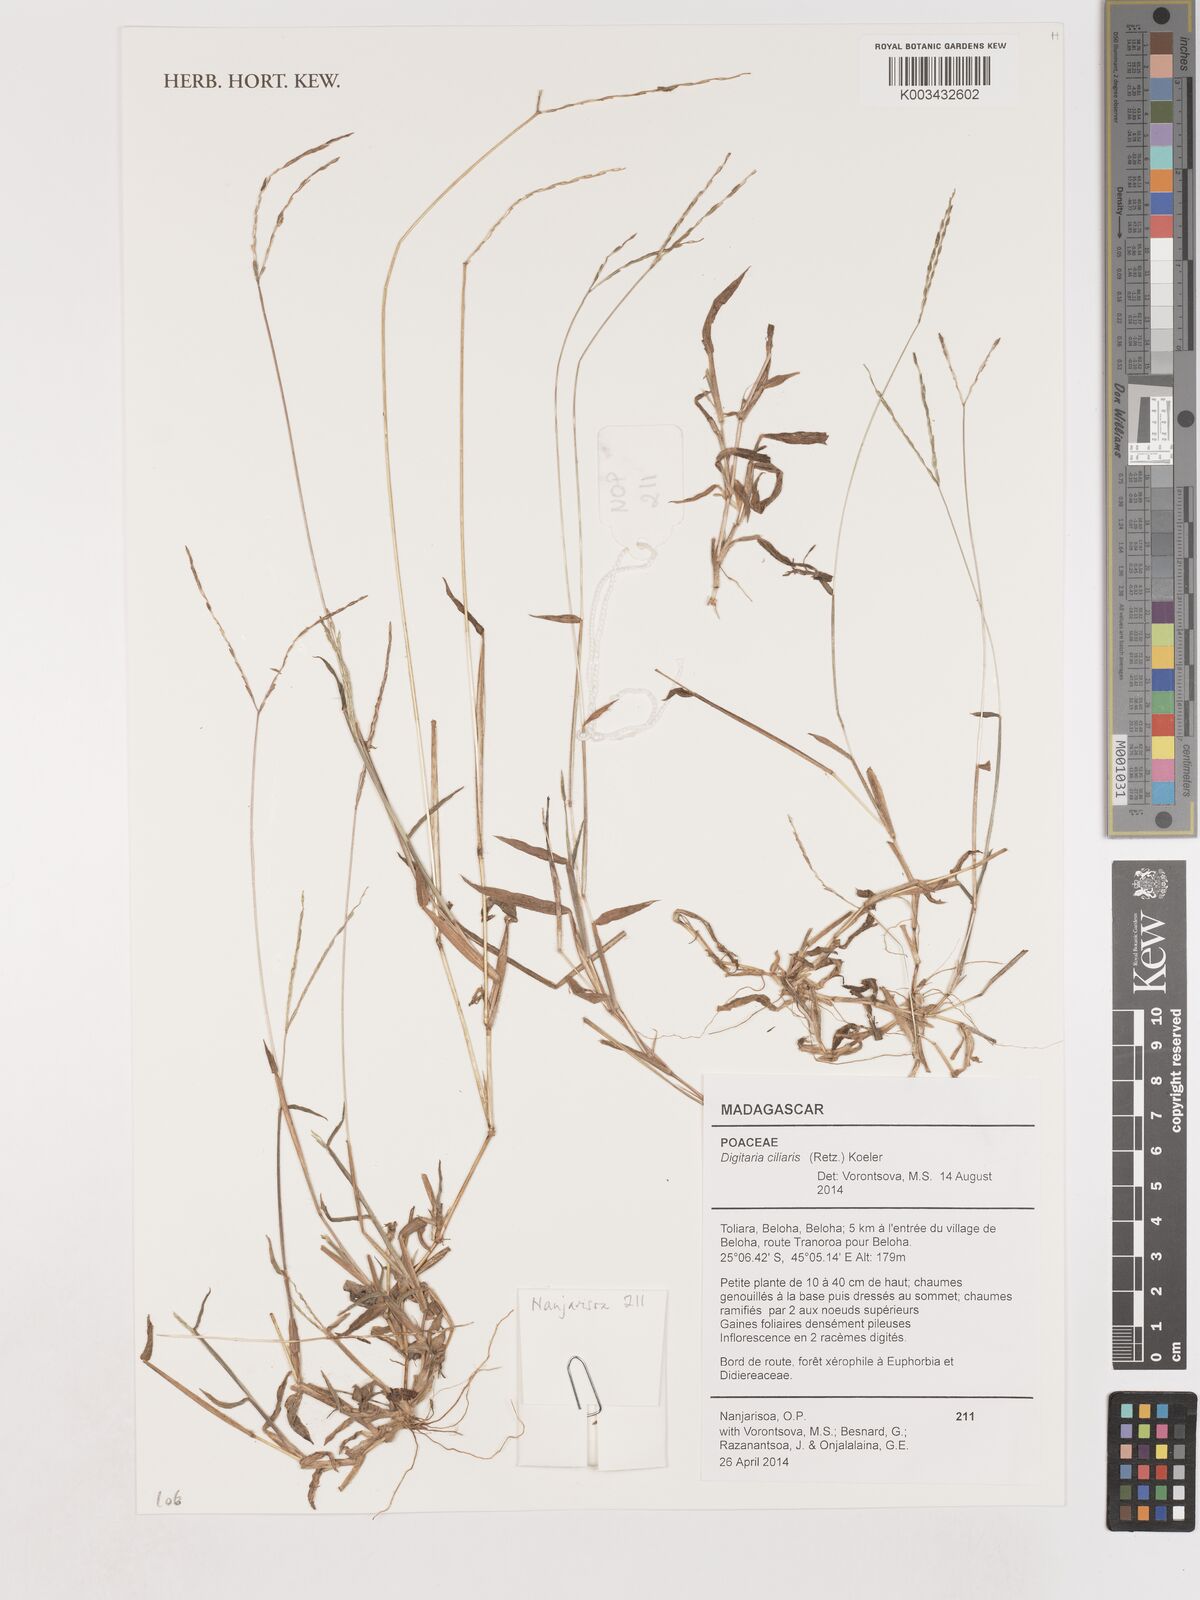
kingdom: Plantae
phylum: Tracheophyta
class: Liliopsida
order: Poales
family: Poaceae
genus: Digitaria
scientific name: Digitaria horizontalis
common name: Jamaican crabgrass
